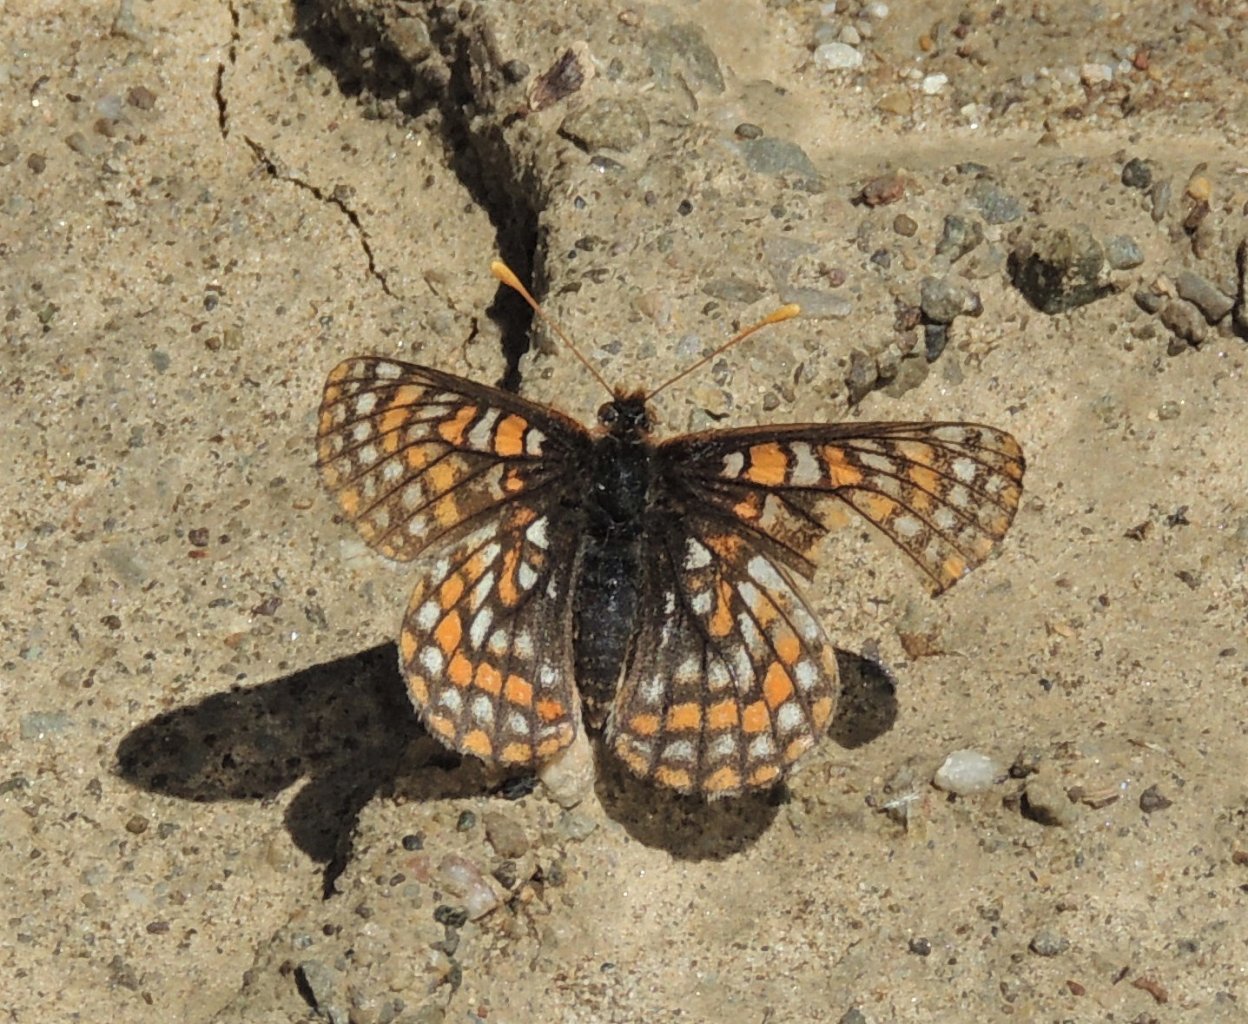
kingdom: Animalia
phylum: Arthropoda
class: Insecta
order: Lepidoptera
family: Nymphalidae
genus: Occidryas
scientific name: Occidryas editha
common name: Edith's Checkerspot
